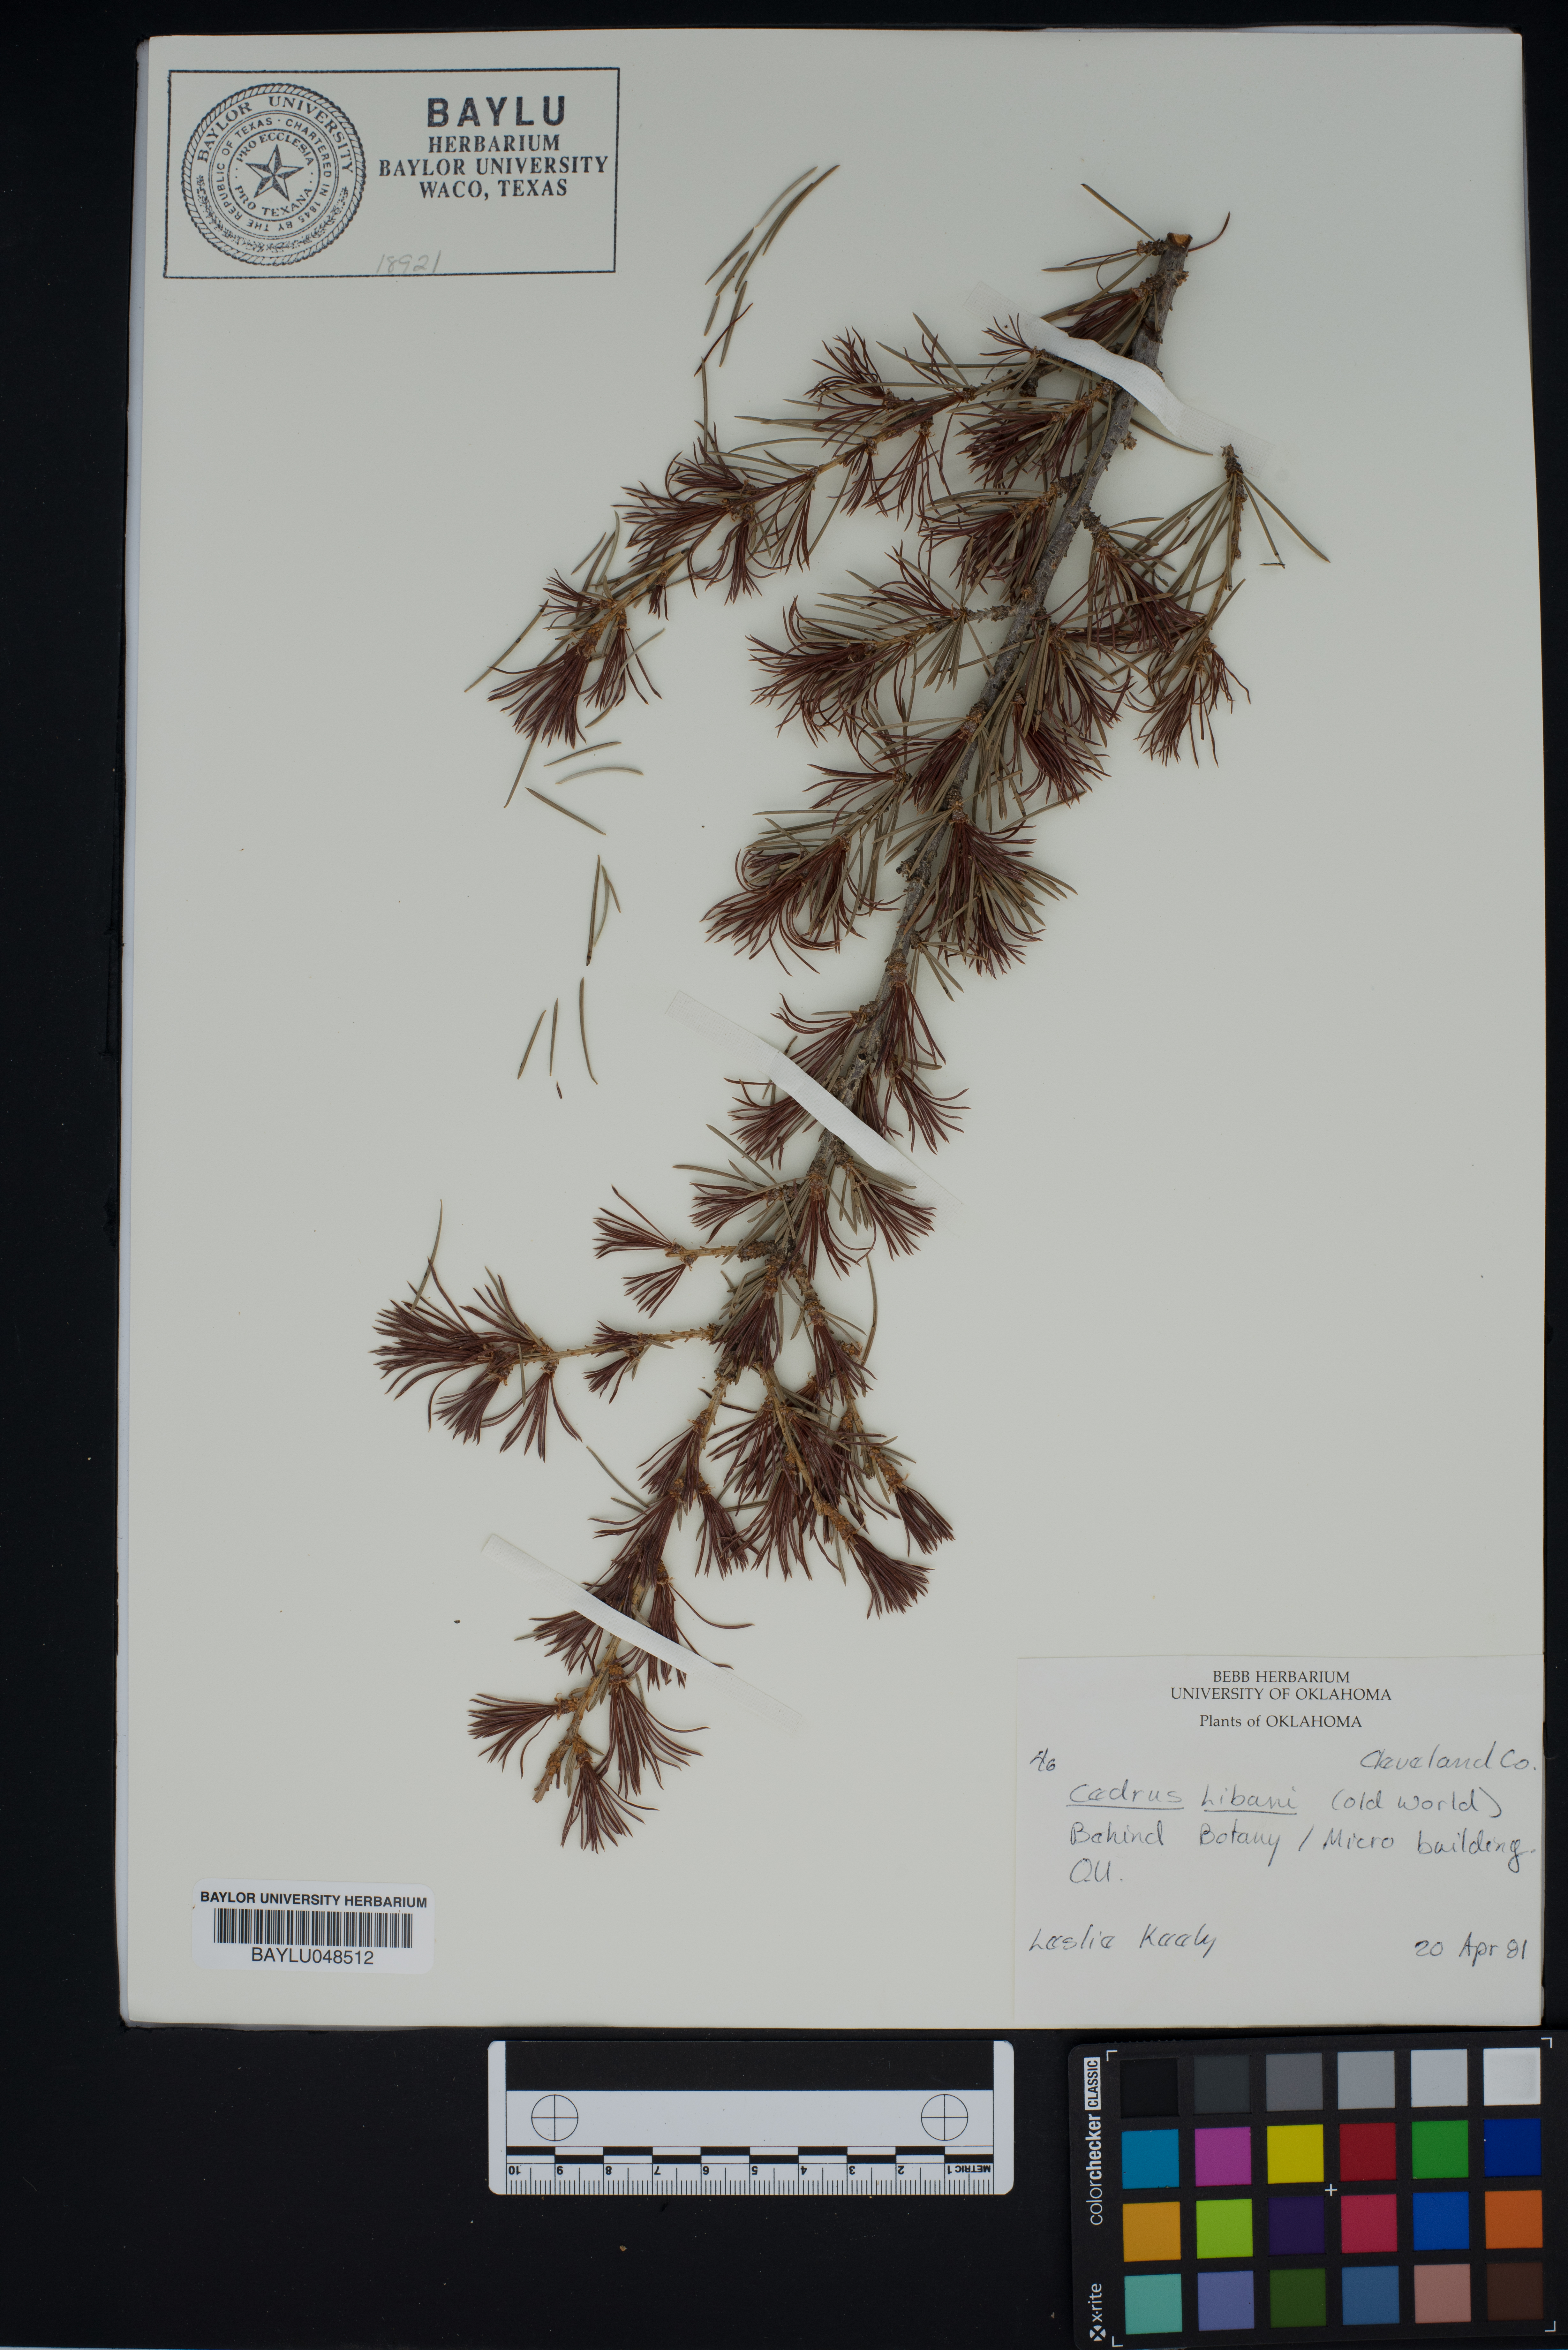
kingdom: Plantae
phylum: Tracheophyta
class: Pinopsida
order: Pinales
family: Pinaceae
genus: Cedrus
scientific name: Cedrus libani
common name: Cedar-of-lebanon
